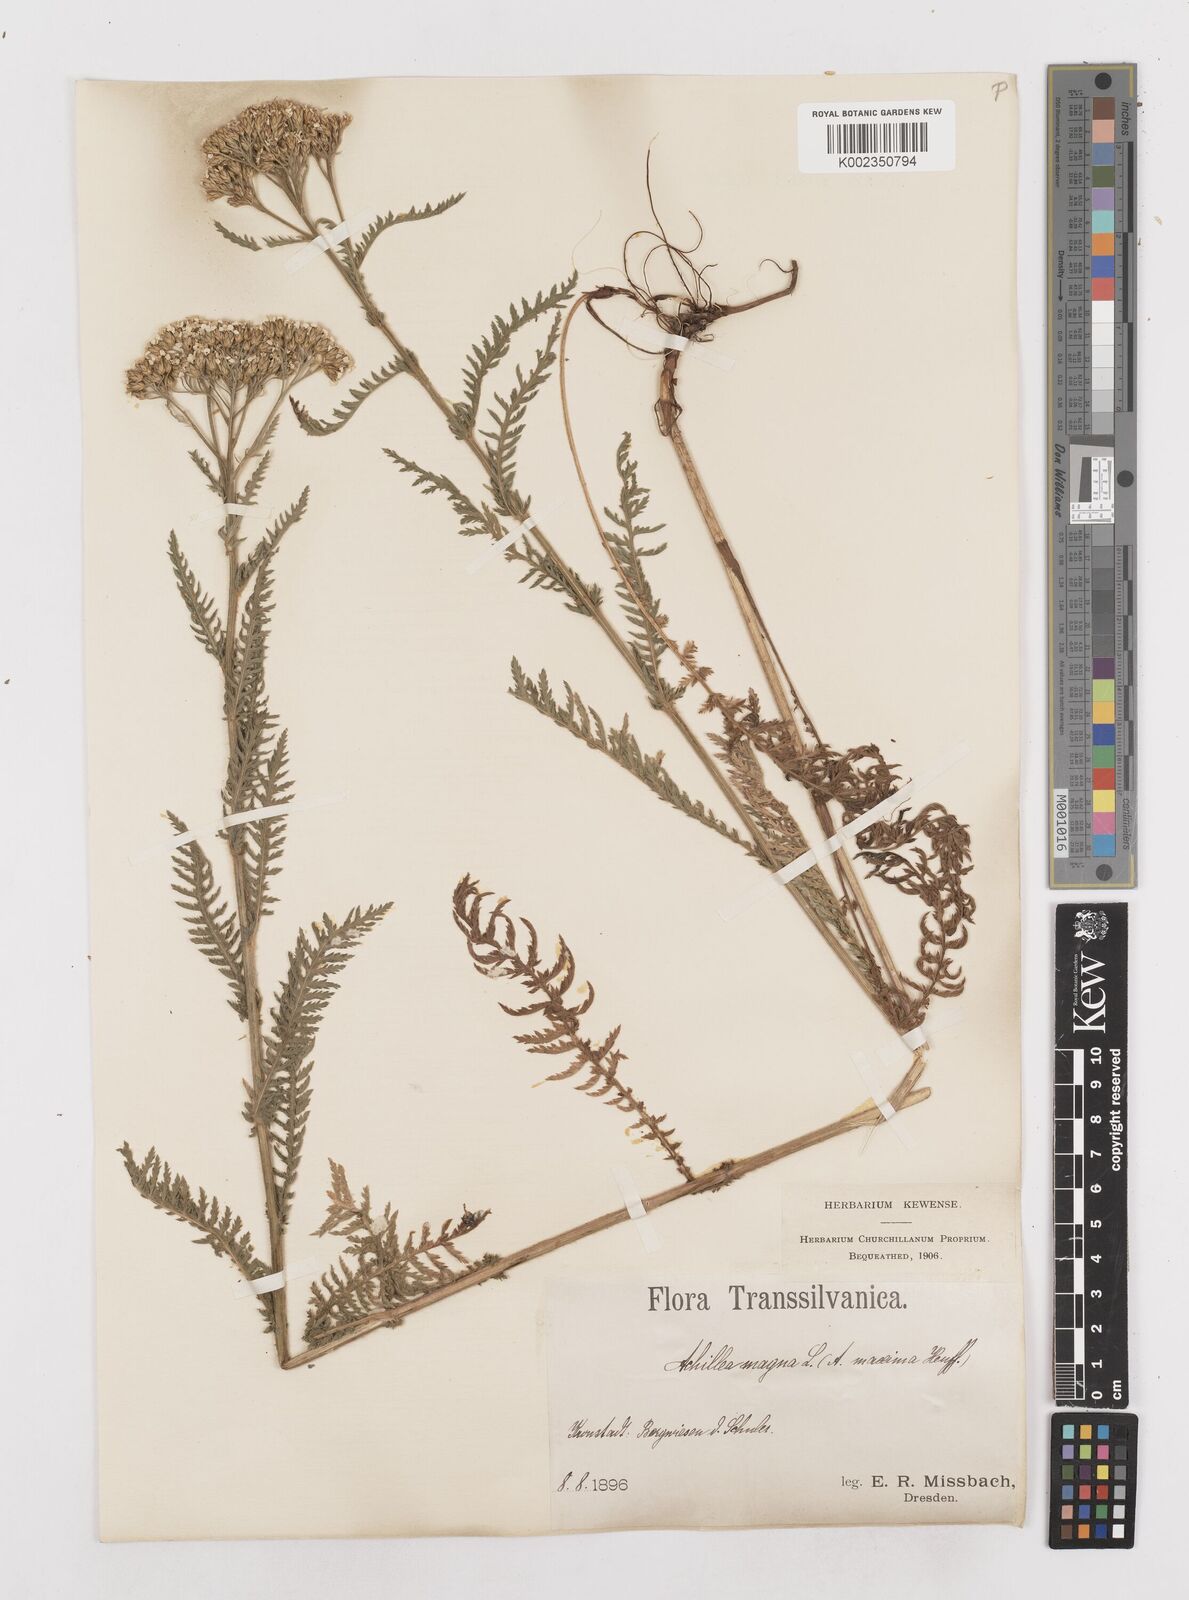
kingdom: Plantae
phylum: Tracheophyta
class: Magnoliopsida
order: Asterales
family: Asteraceae
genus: Achillea
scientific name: Achillea distans
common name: Tall yarrow
